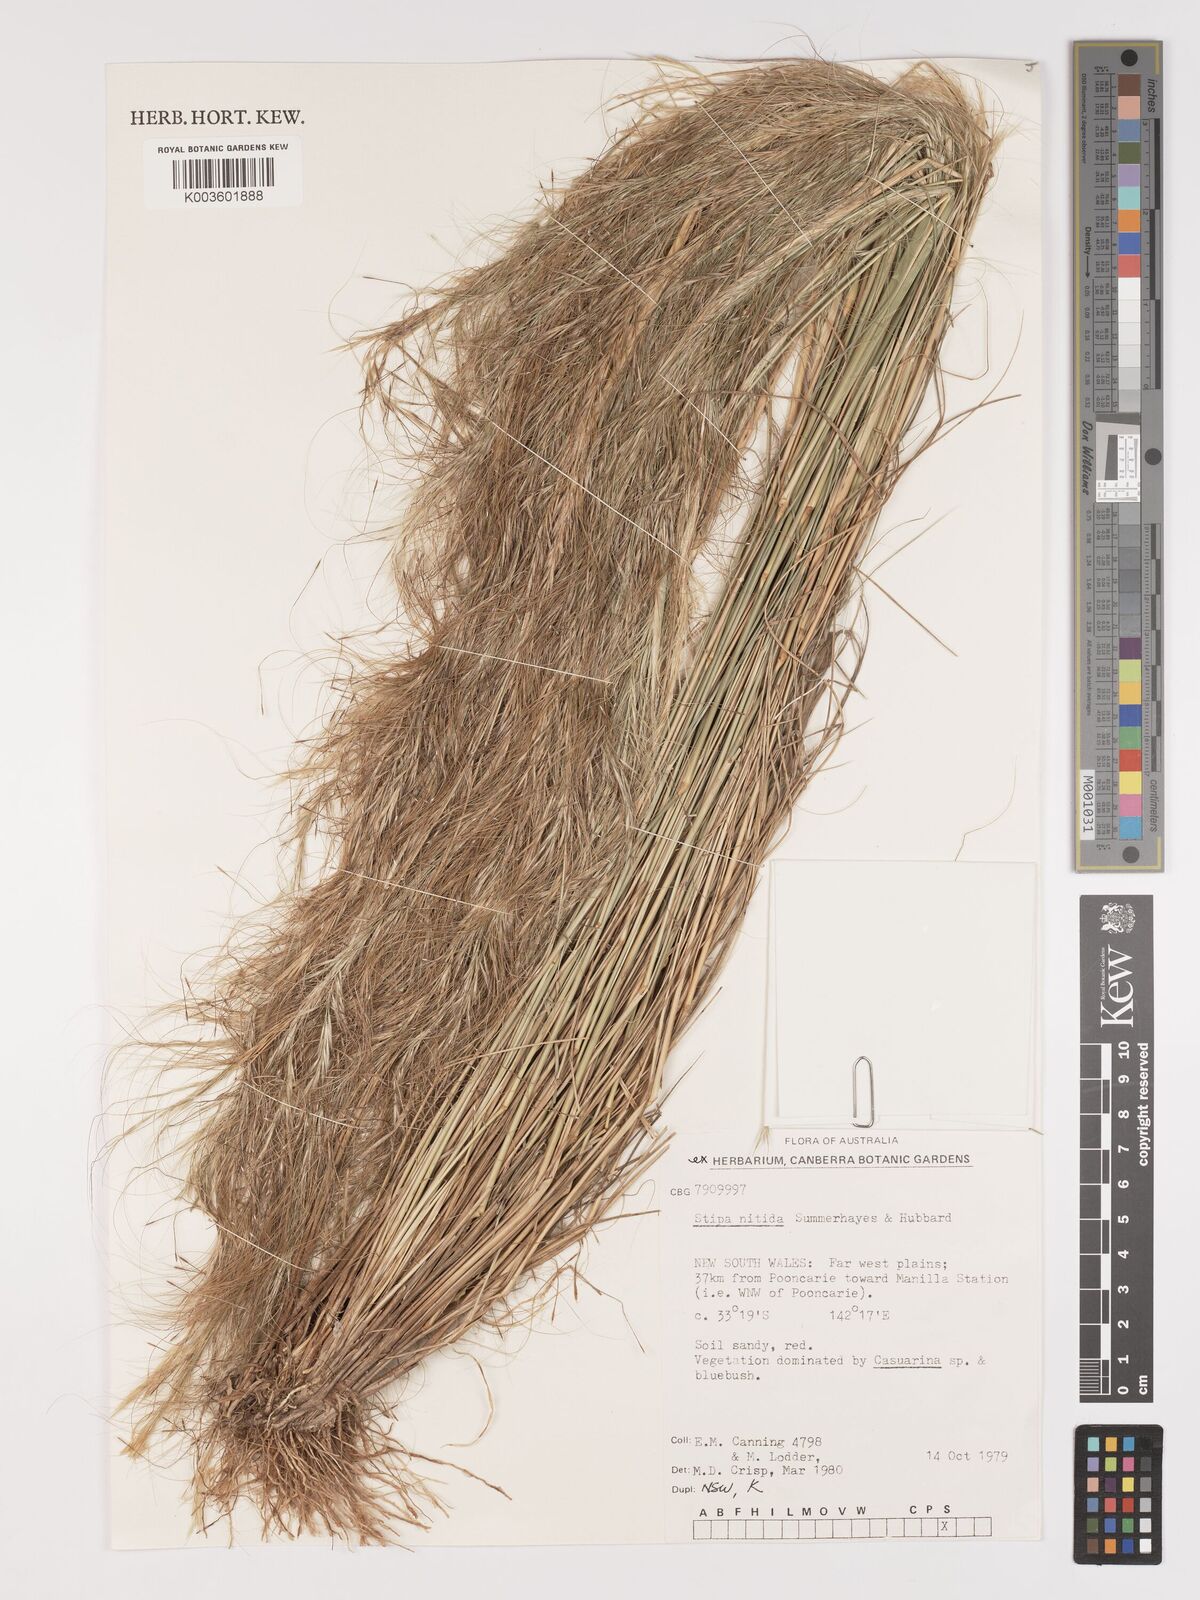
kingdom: Plantae
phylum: Tracheophyta
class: Liliopsida
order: Poales
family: Poaceae
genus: Austrostipa
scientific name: Austrostipa nitida
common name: Balcarra grass
